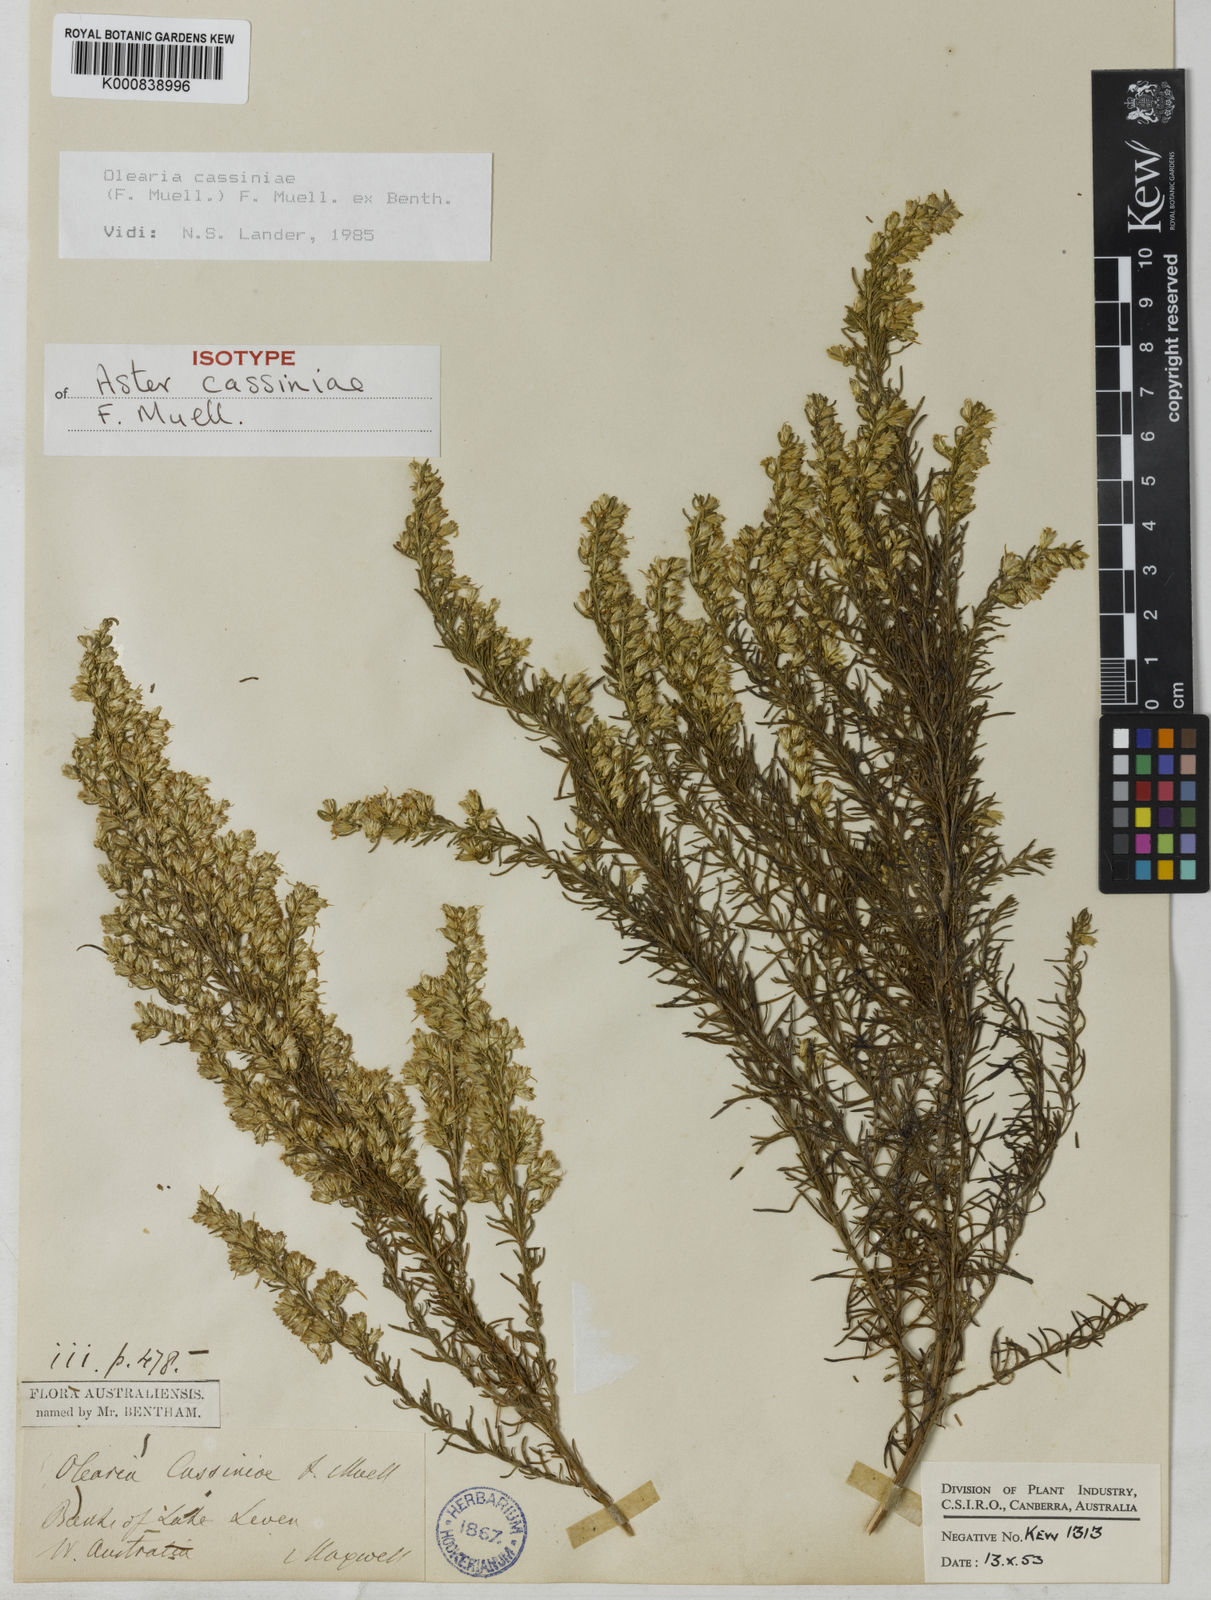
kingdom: Plantae
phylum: Tracheophyta
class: Magnoliopsida
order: Asterales
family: Asteraceae
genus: Olearia
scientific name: Olearia cassiniae
